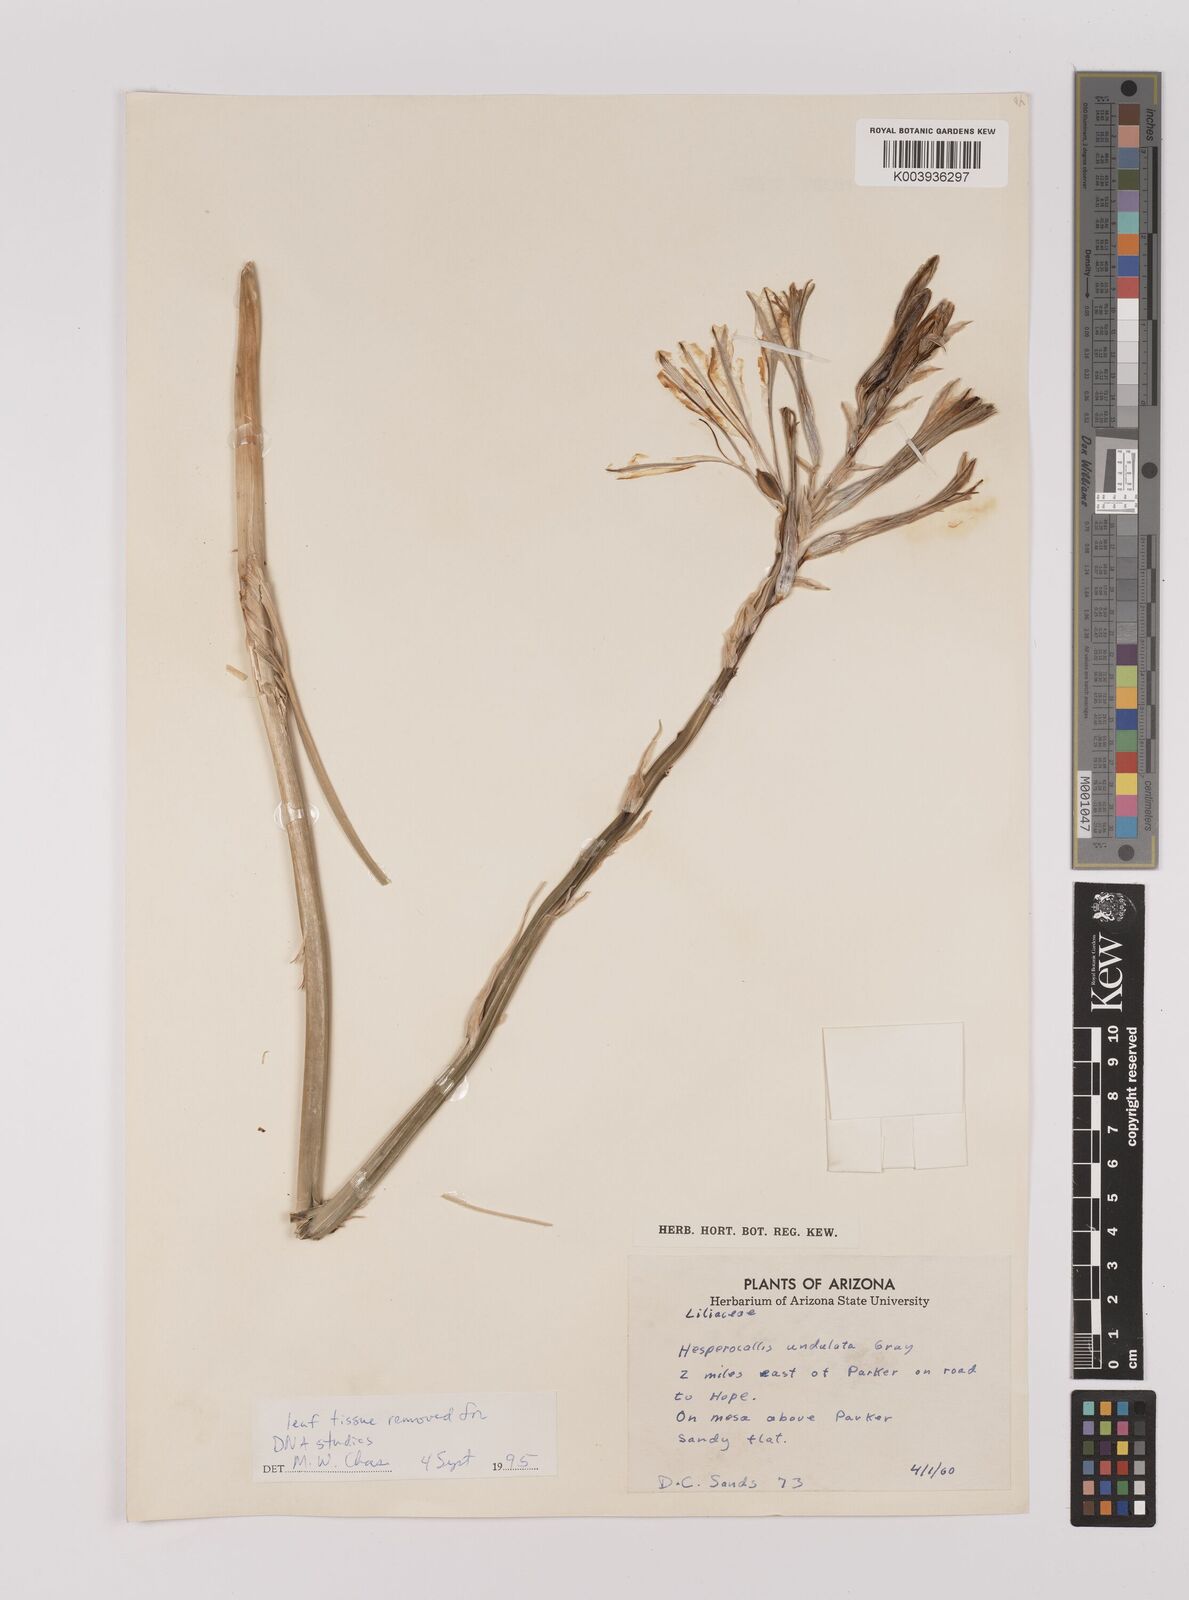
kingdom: Plantae
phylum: Tracheophyta
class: Liliopsida
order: Asparagales
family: Asparagaceae
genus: Hesperocallis
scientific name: Hesperocallis
